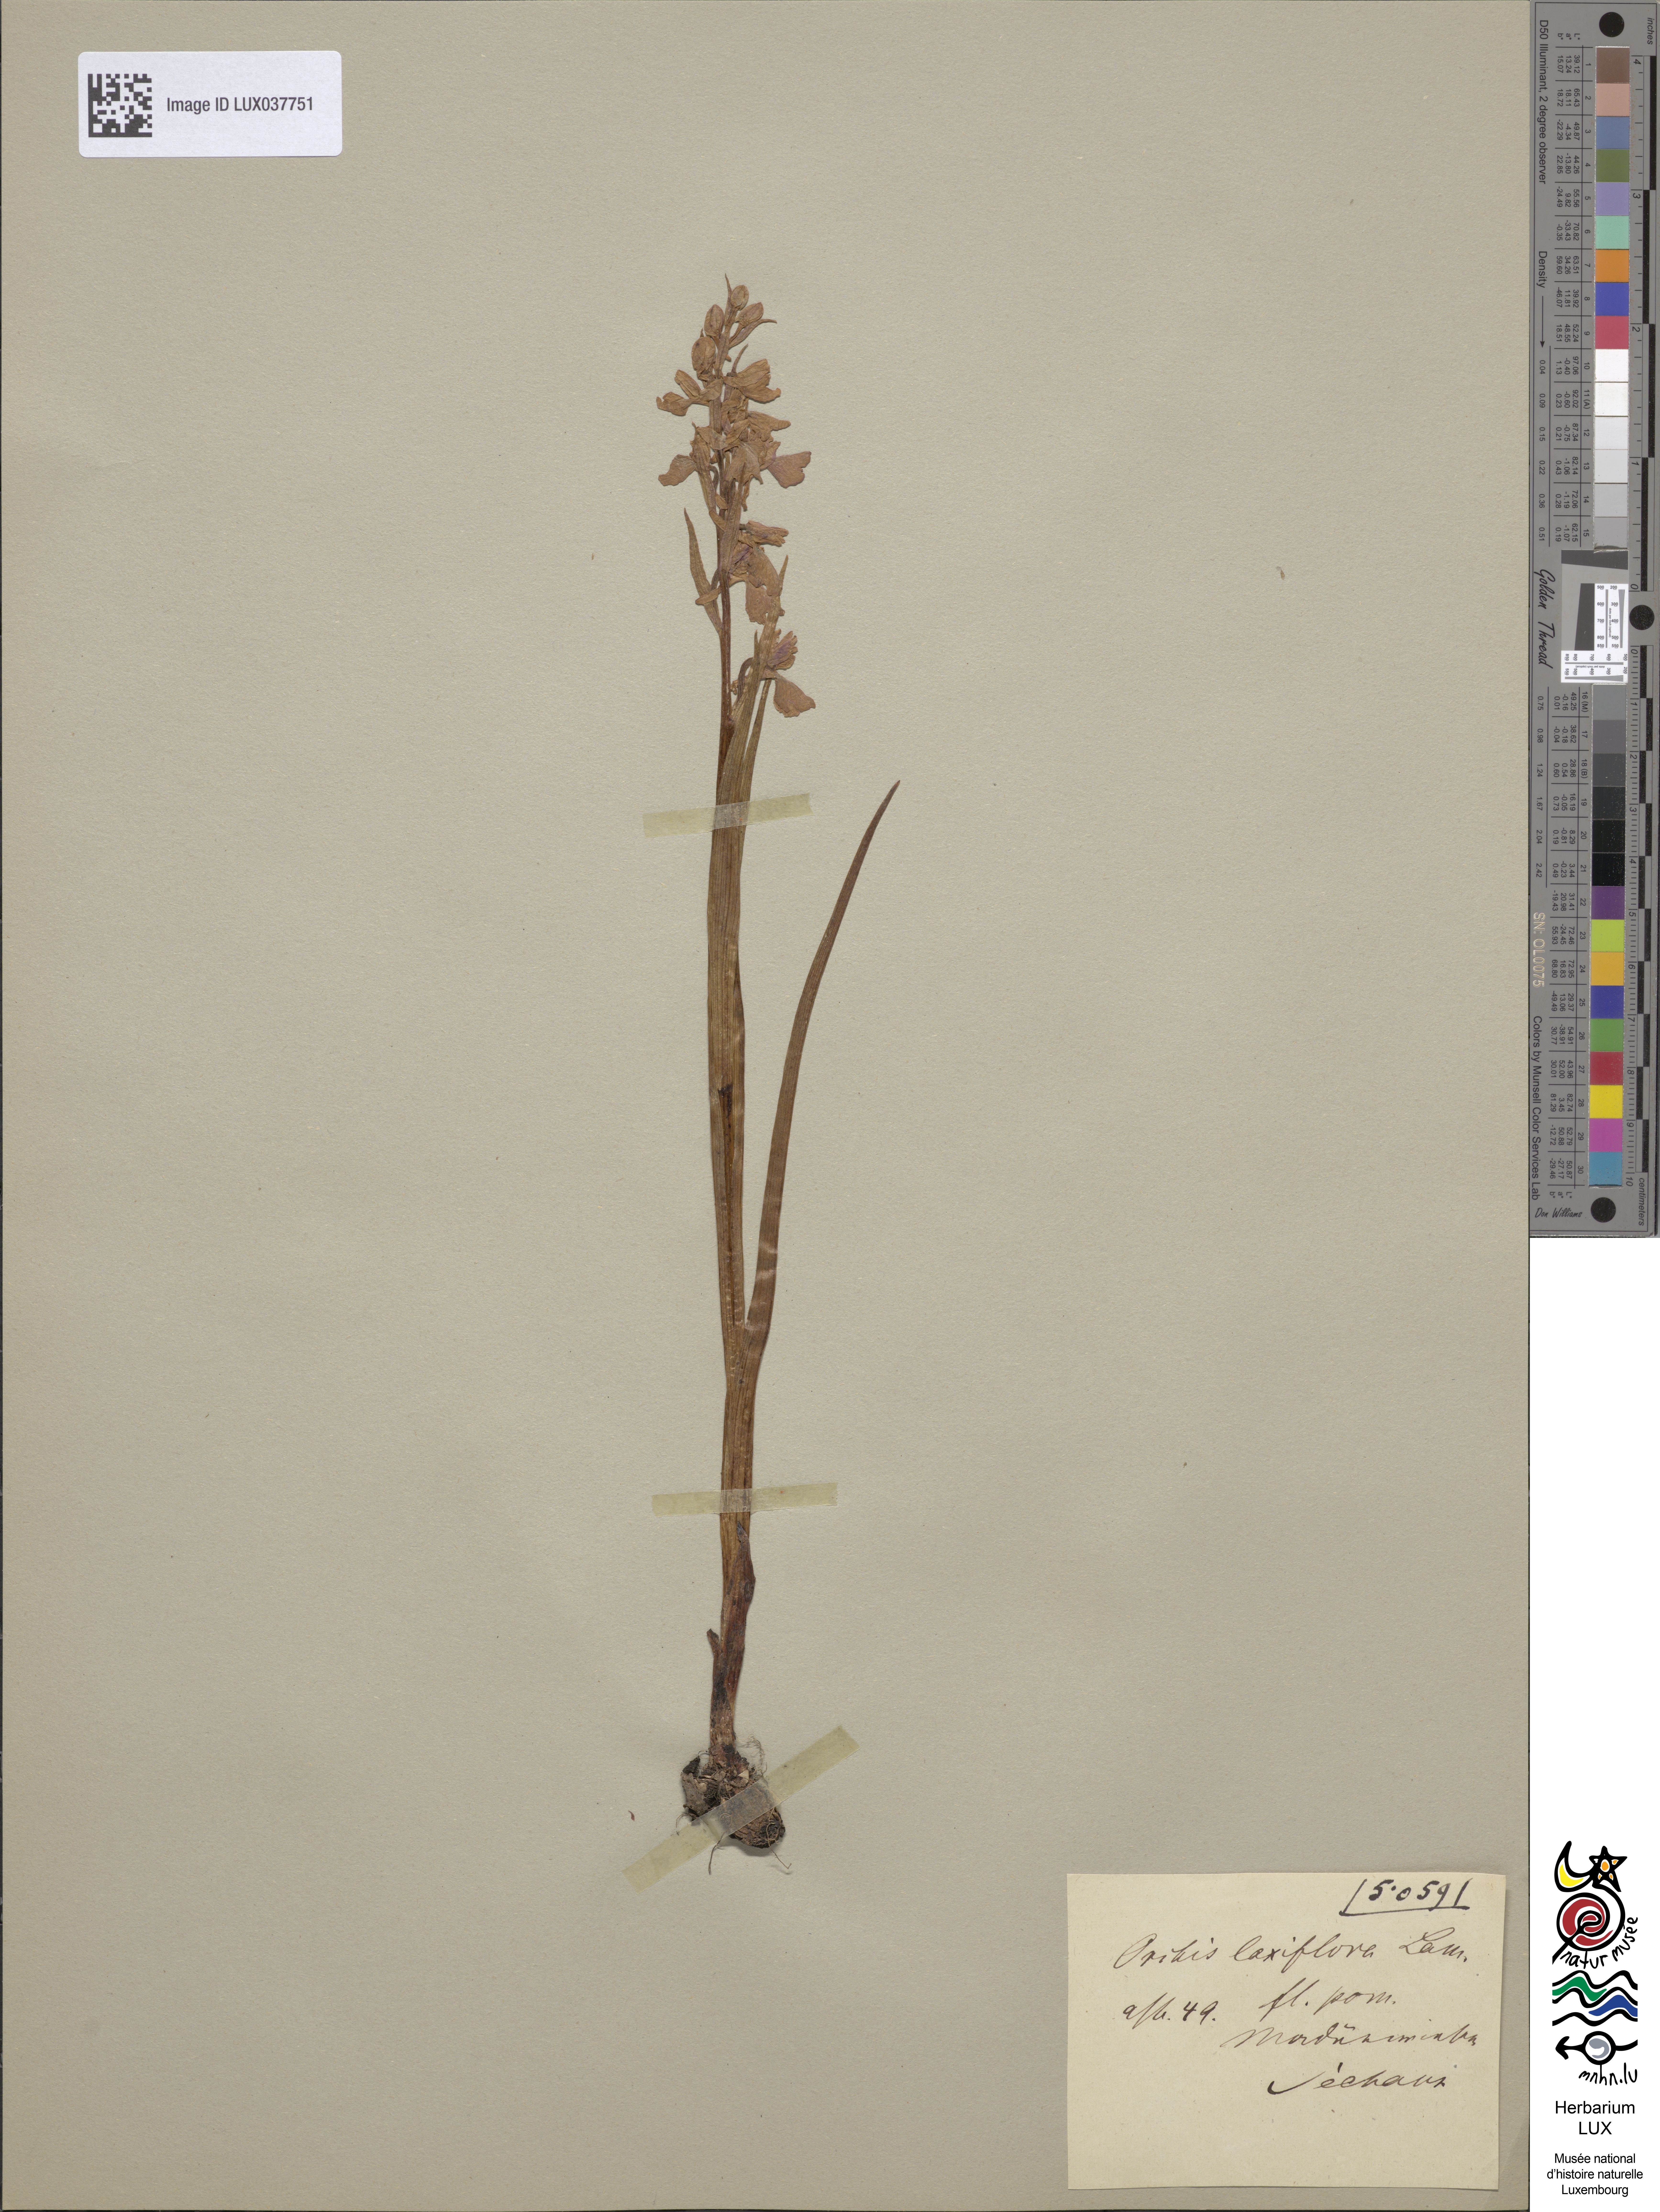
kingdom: Plantae
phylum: Tracheophyta
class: Liliopsida
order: Asparagales
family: Orchidaceae
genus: Anacamptis
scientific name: Anacamptis laxiflora
